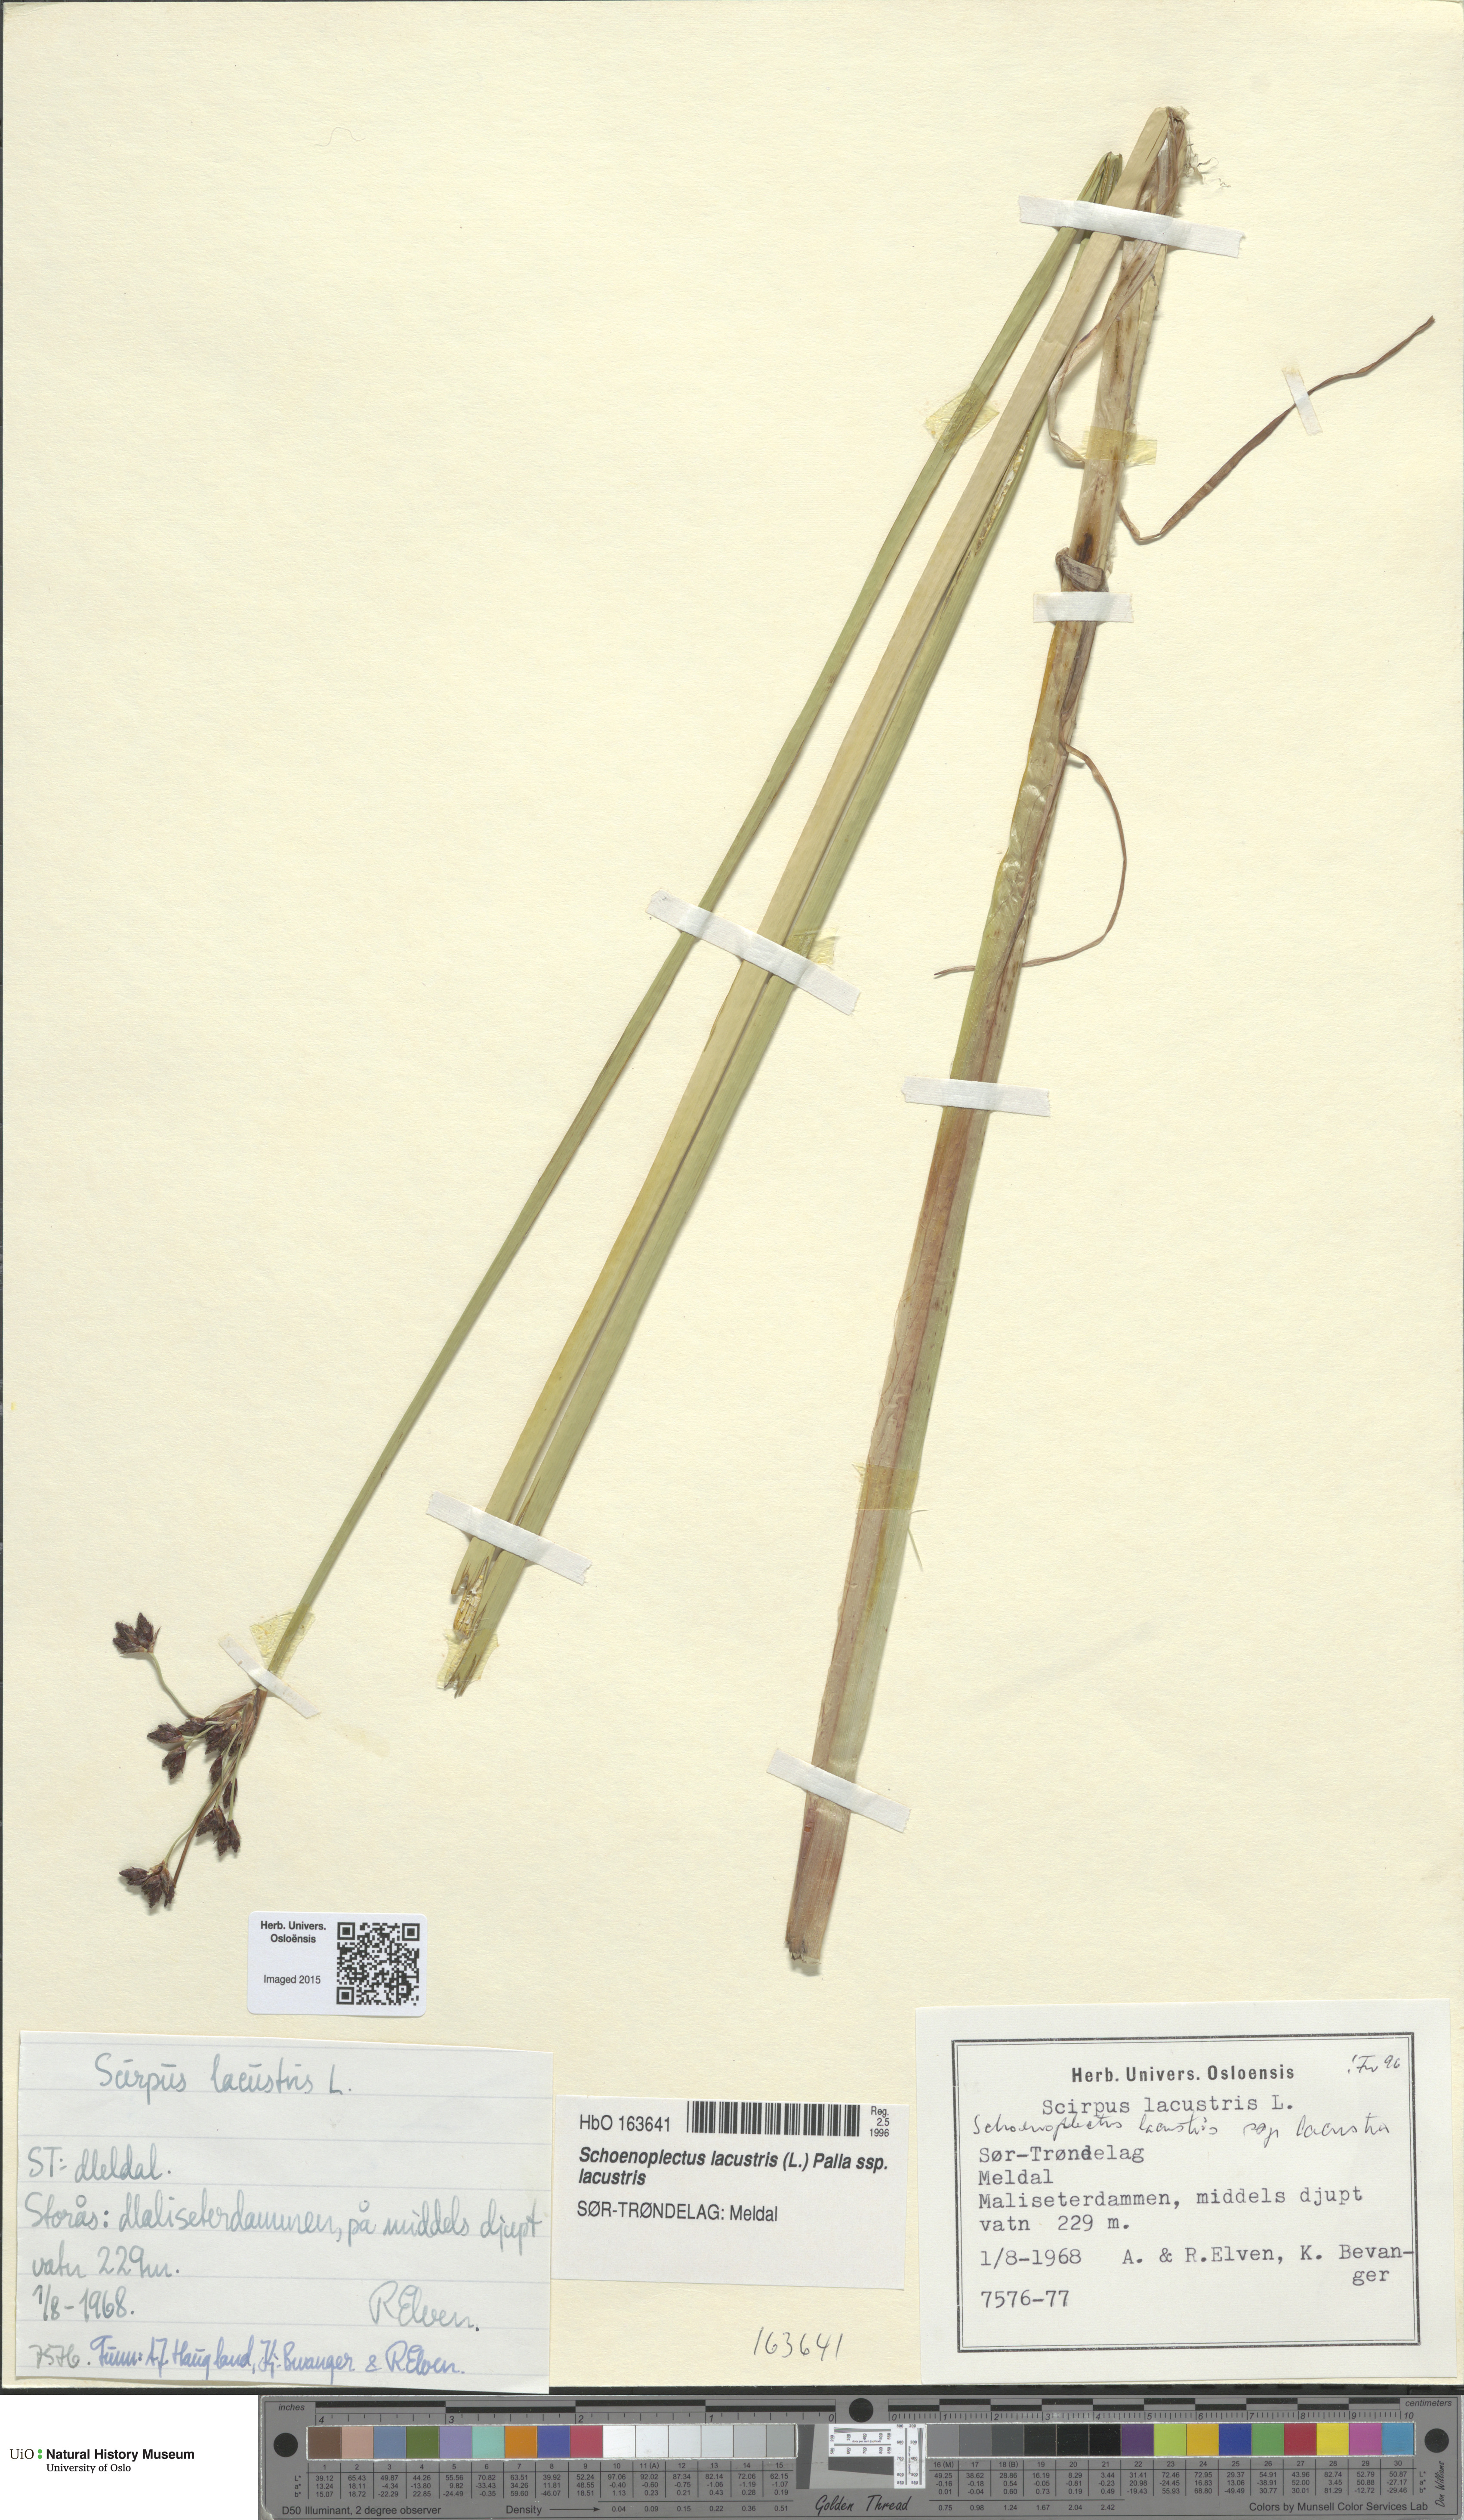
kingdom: Plantae
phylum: Tracheophyta
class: Liliopsida
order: Poales
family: Cyperaceae
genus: Schoenoplectus
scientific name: Schoenoplectus lacustris
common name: Common club-rush
